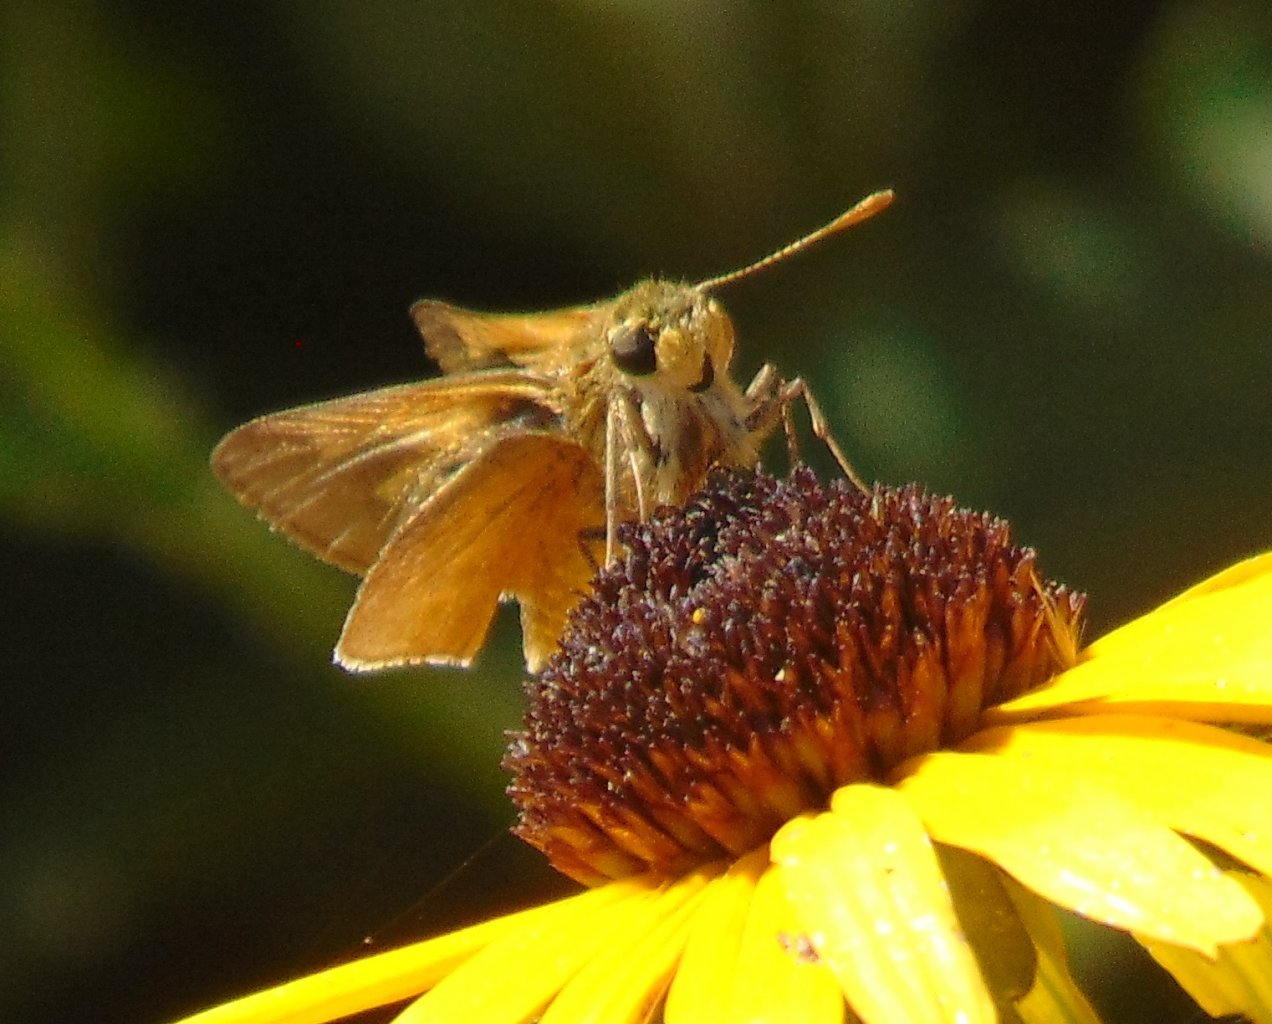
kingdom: Animalia
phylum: Arthropoda
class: Insecta
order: Lepidoptera
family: Hesperiidae
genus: Polites
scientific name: Polites themistocles
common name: Tawny-edged Skipper
